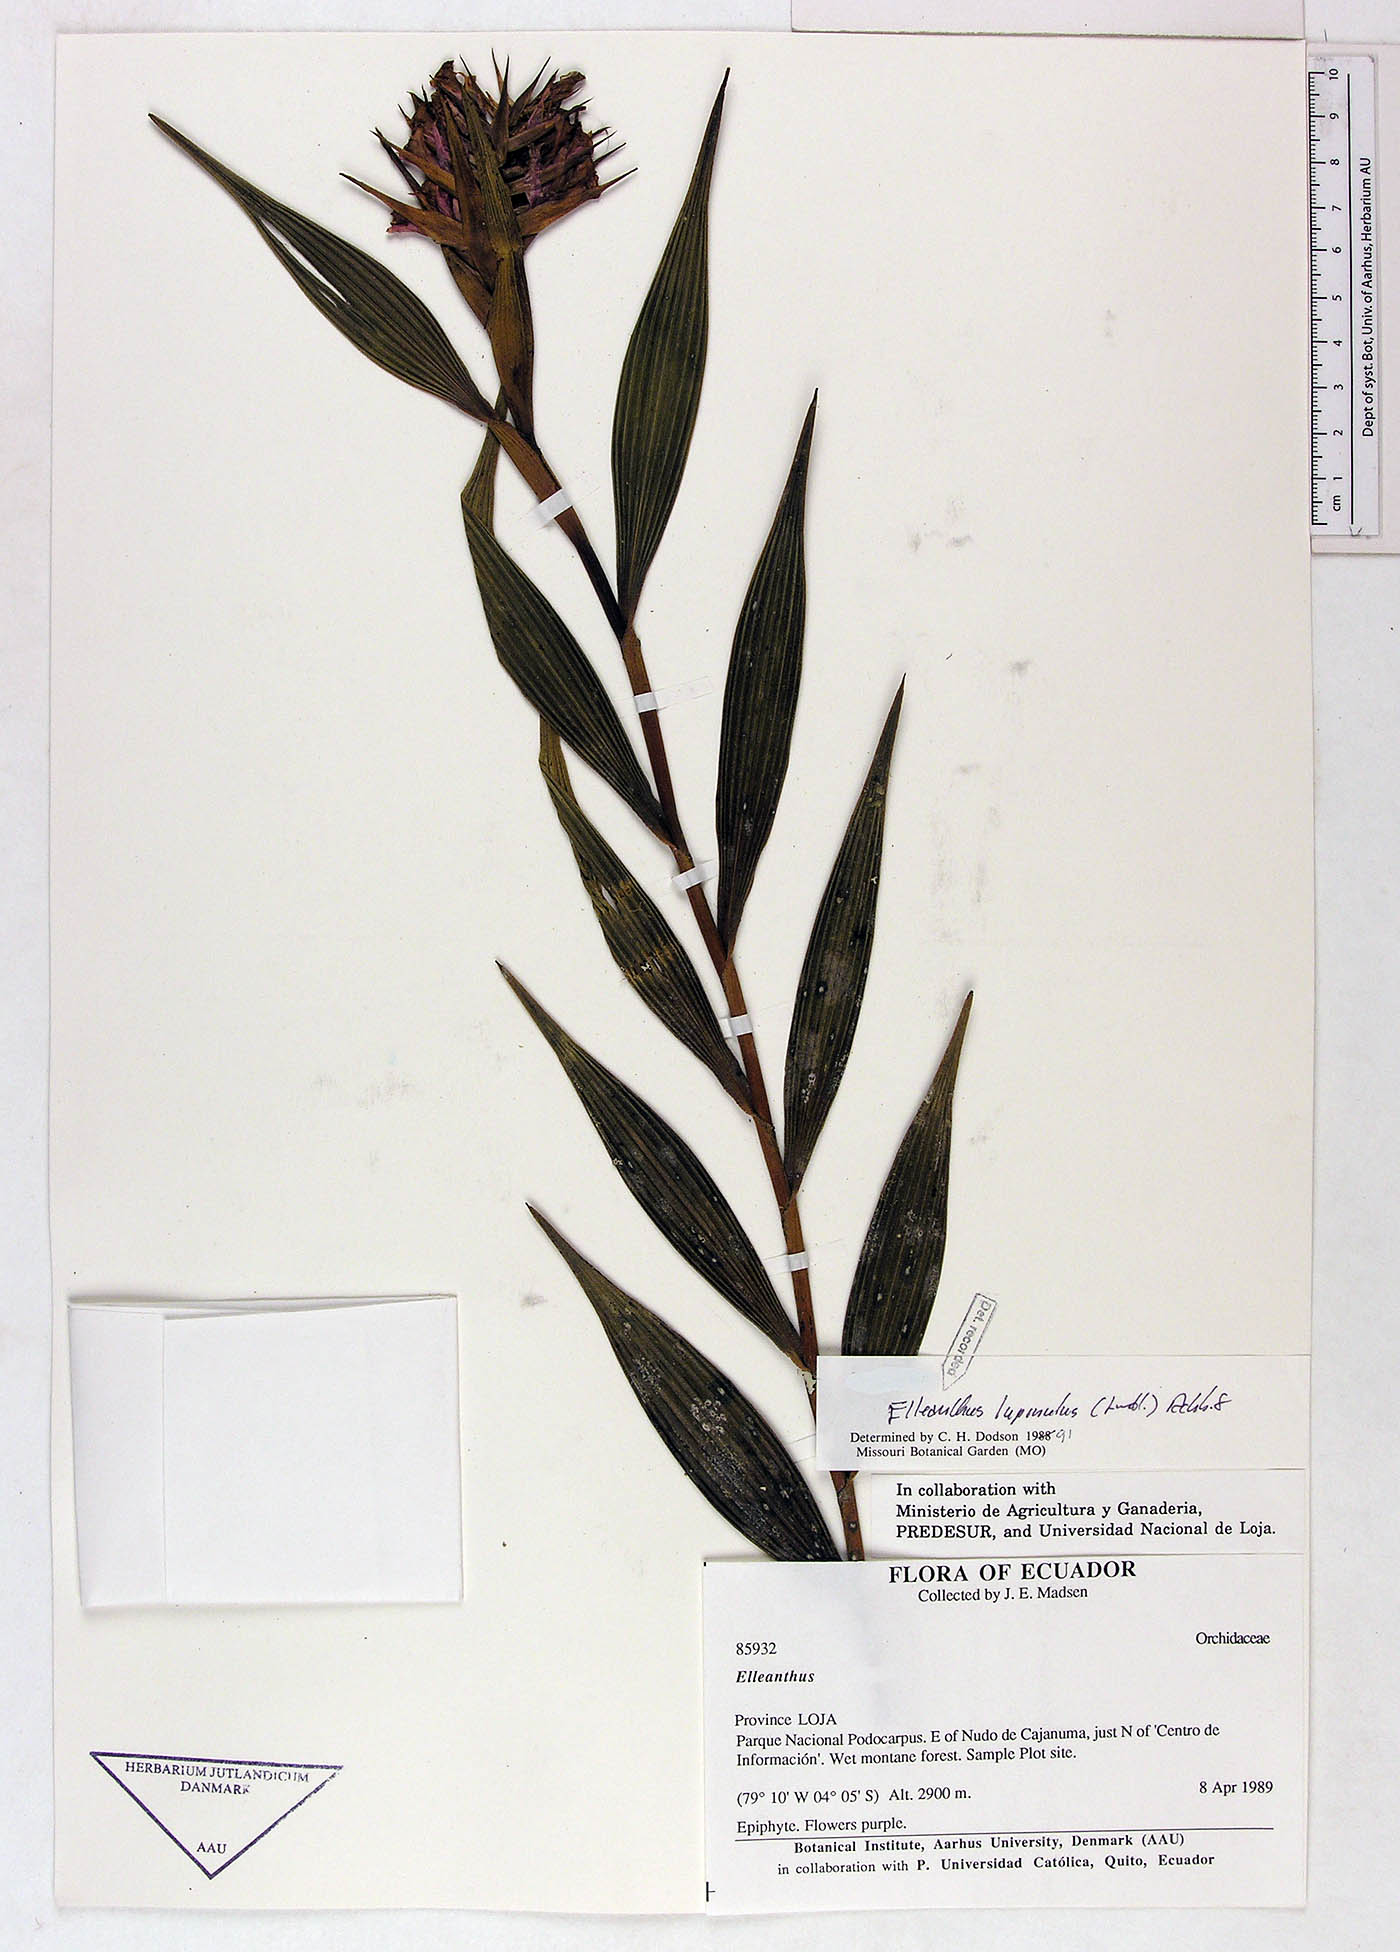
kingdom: Plantae
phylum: Tracheophyta
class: Liliopsida
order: Asparagales
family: Orchidaceae
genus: Elleanthus
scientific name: Elleanthus maculatus
